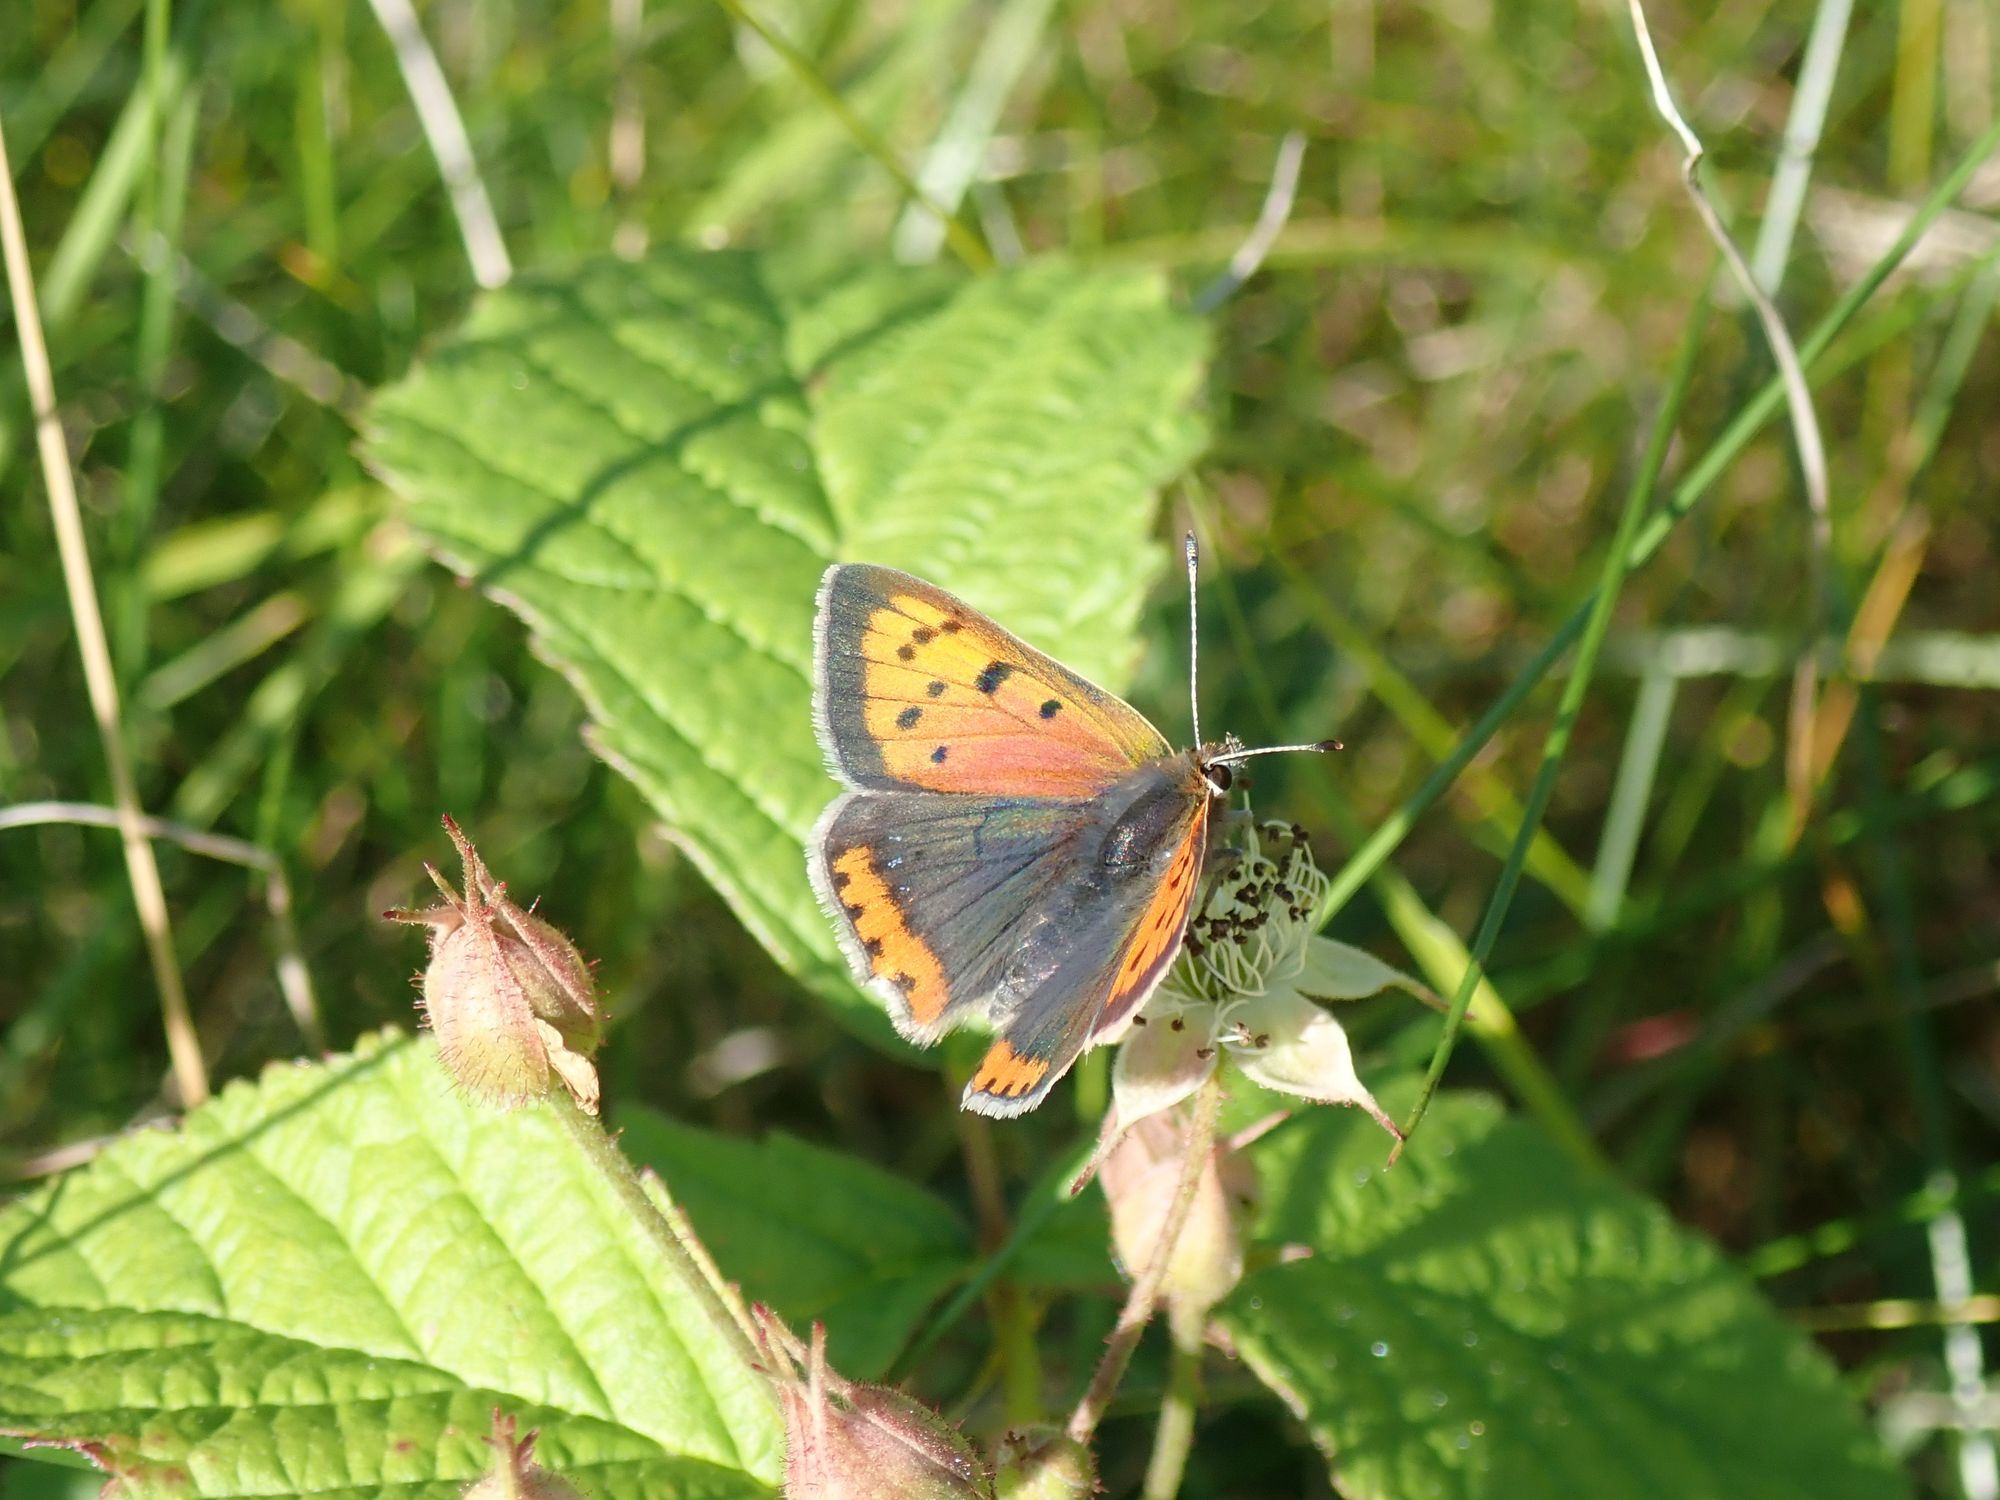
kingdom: Animalia
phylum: Arthropoda
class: Insecta
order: Lepidoptera
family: Lycaenidae
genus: Lycaena
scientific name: Lycaena phlaeas
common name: Lille ildfugl
